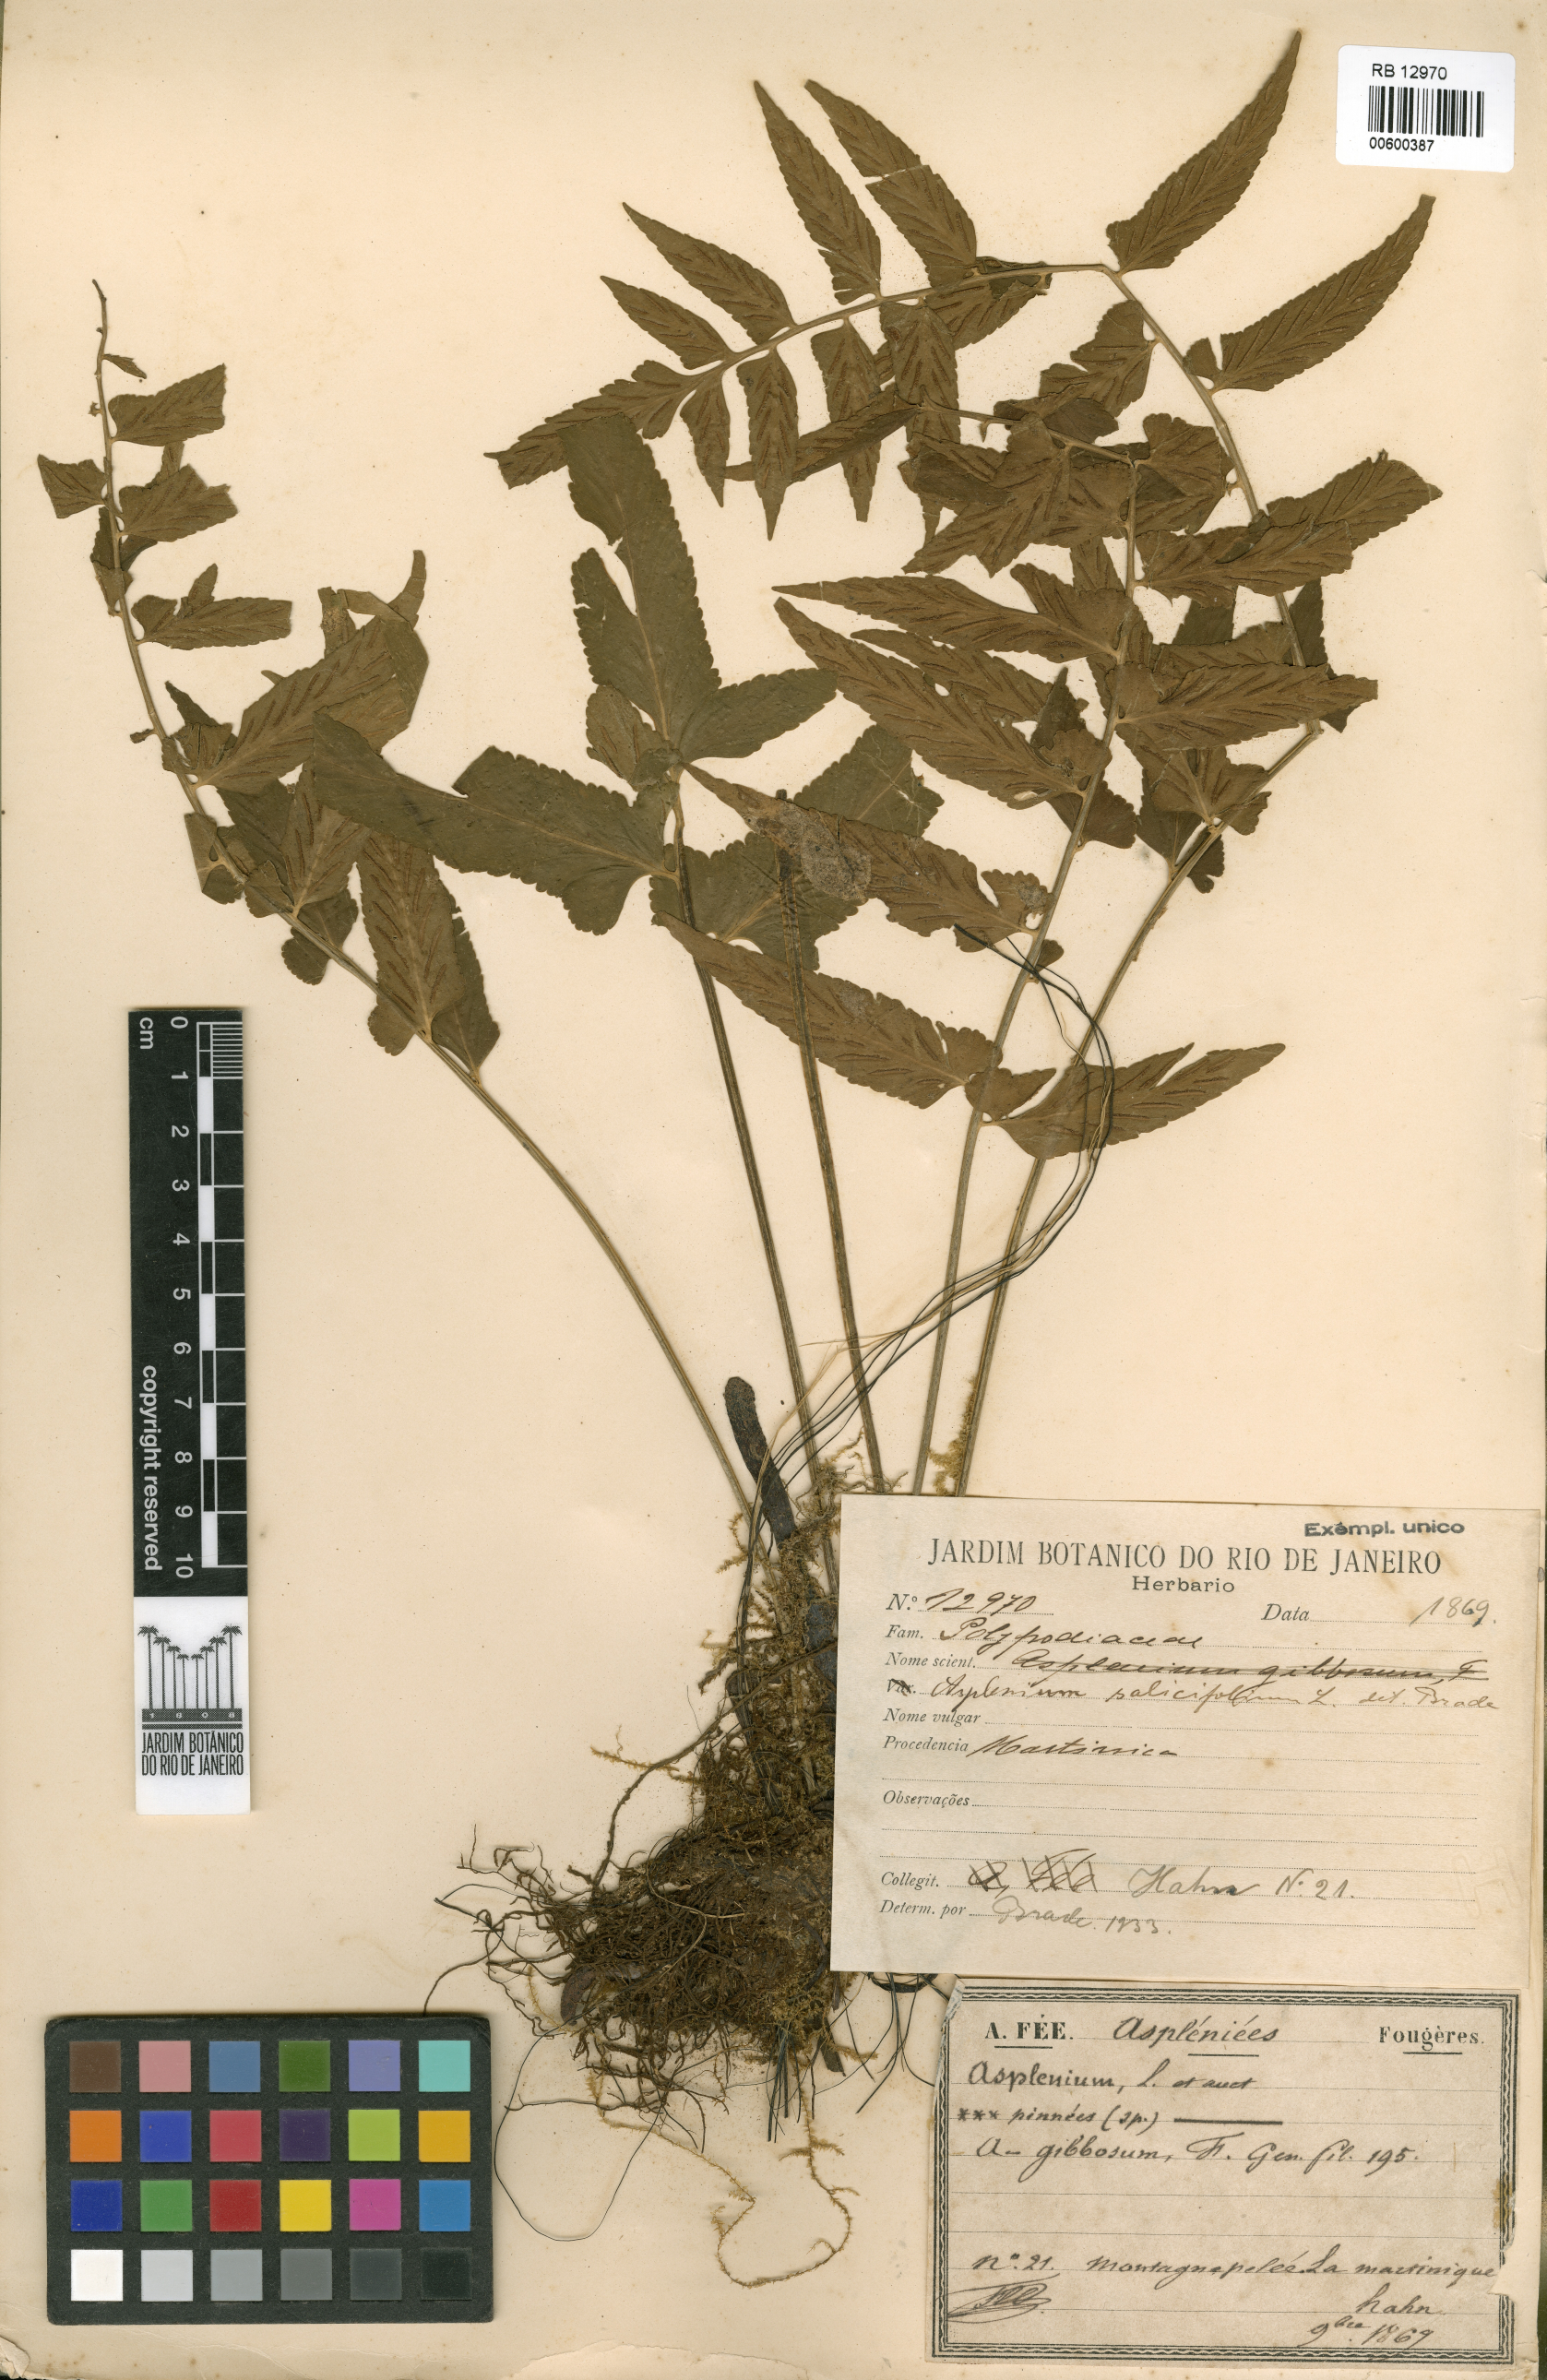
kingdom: Plantae
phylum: Tracheophyta
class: Polypodiopsida
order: Polypodiales
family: Aspleniaceae
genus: Asplenium
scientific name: Asplenium salicifolium
